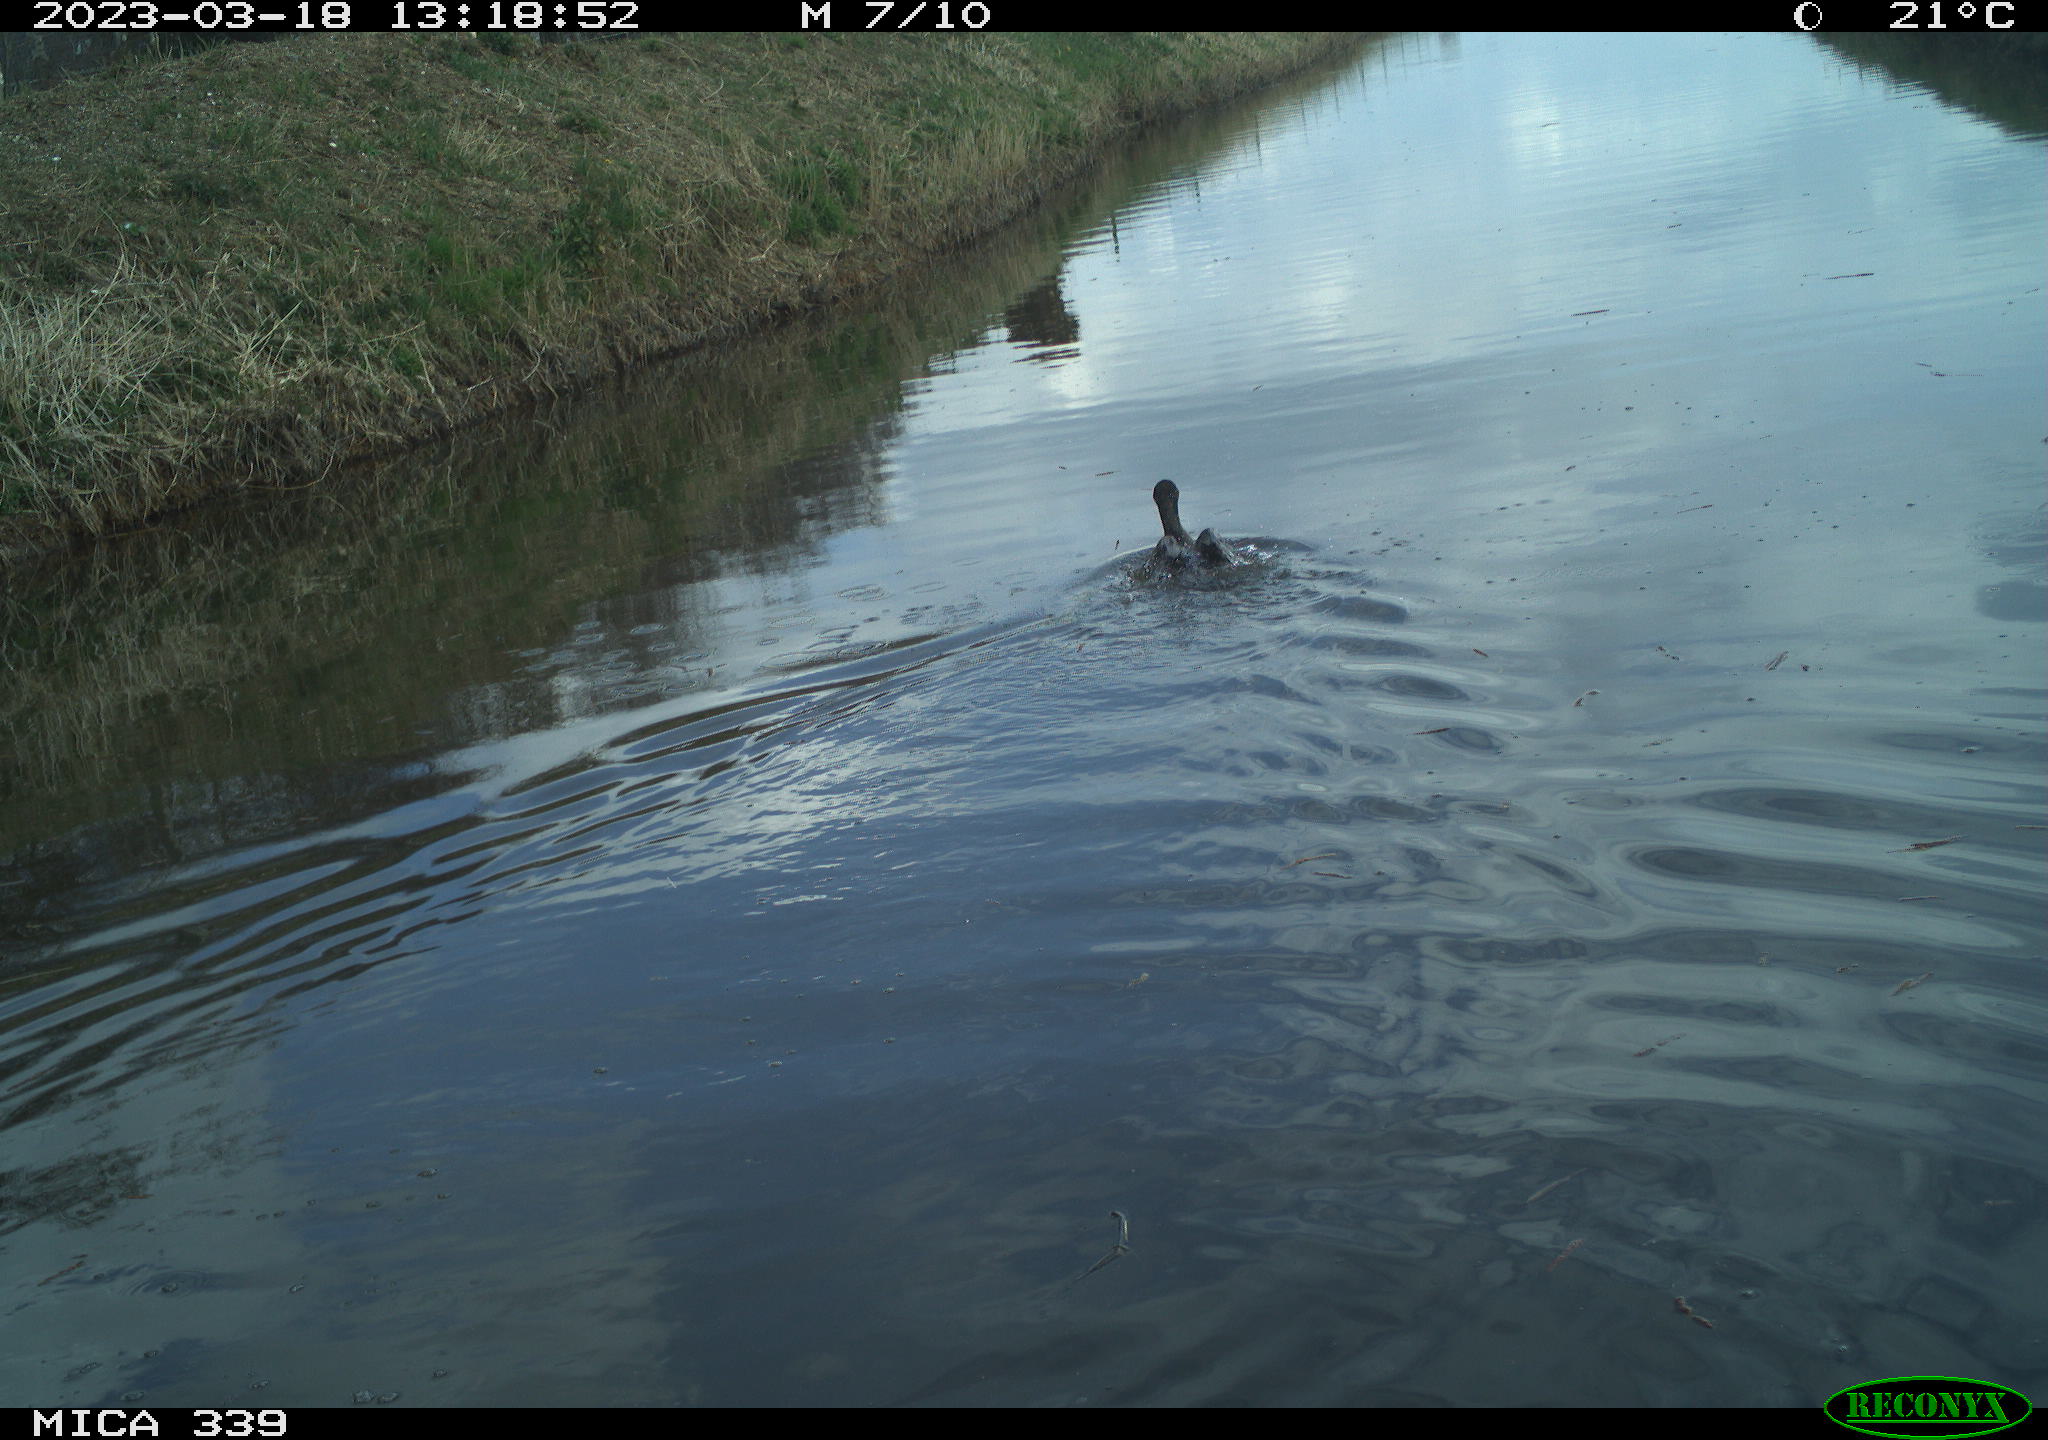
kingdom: Animalia
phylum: Chordata
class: Aves
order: Anseriformes
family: Anatidae
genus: Anas
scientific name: Anas
